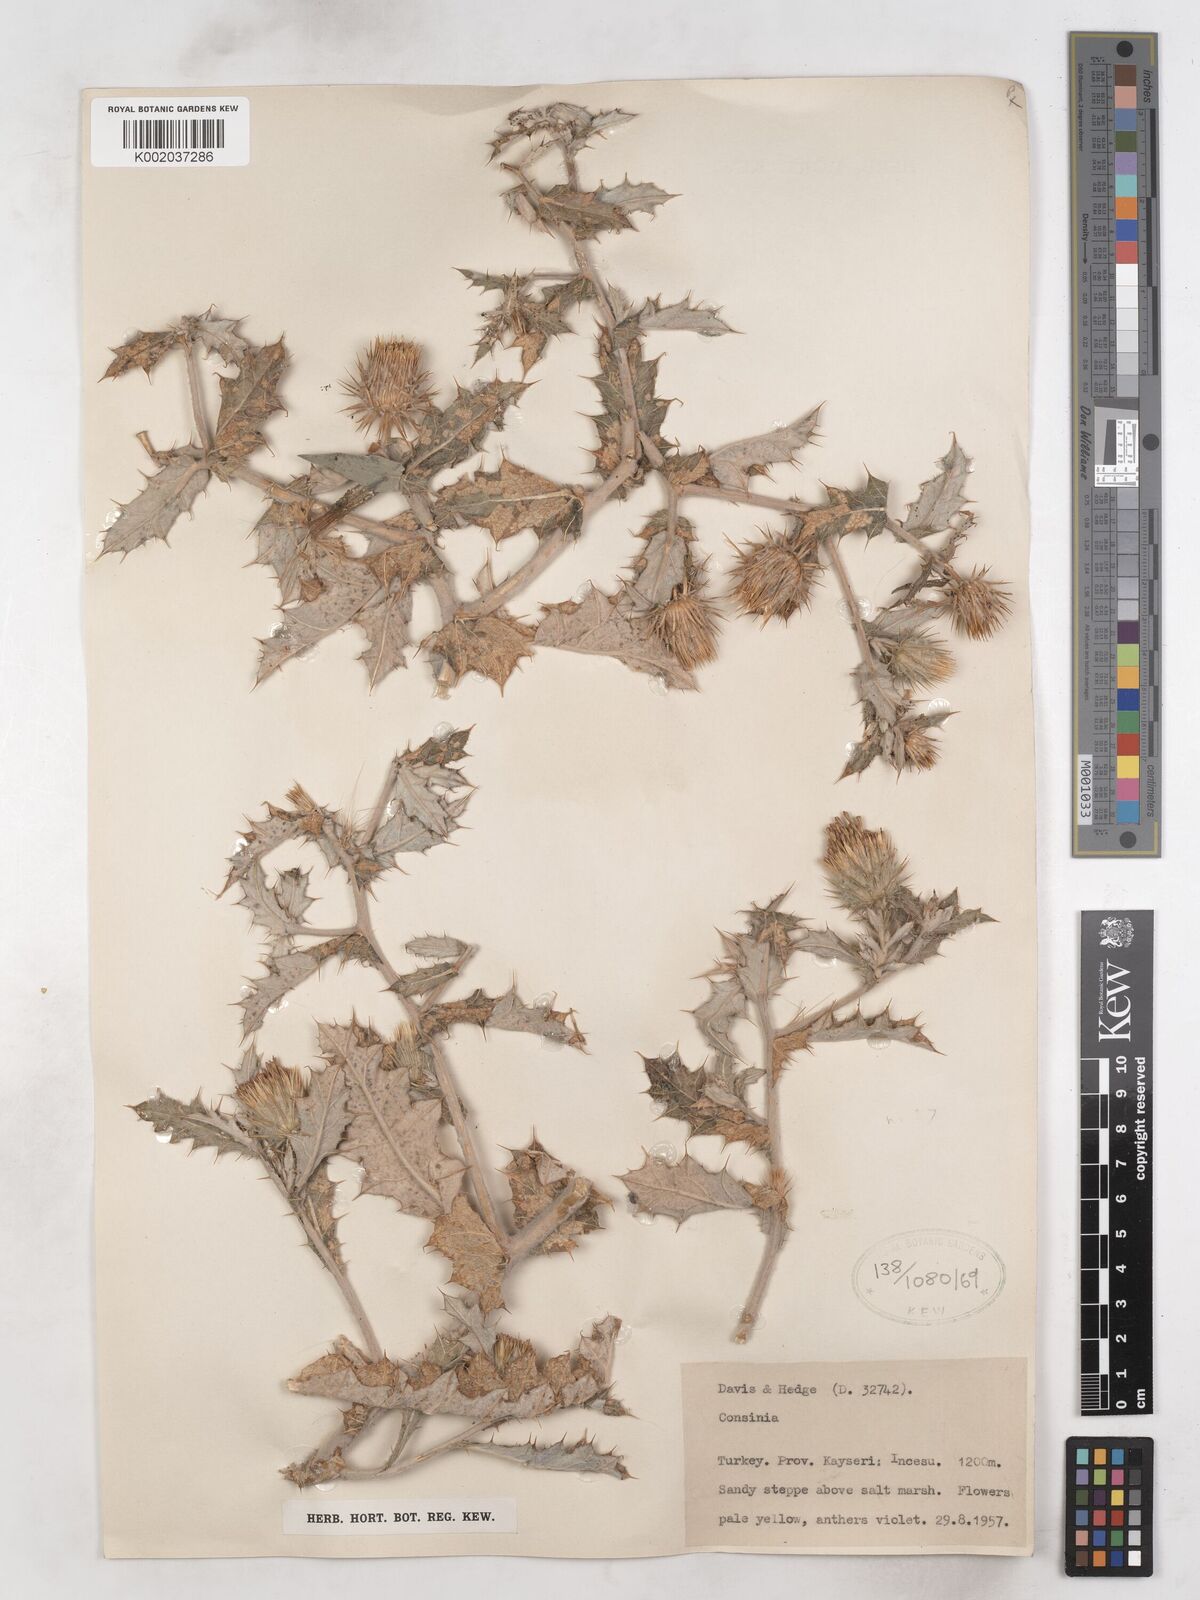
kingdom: Plantae
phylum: Tracheophyta
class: Magnoliopsida
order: Asterales
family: Asteraceae
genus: Cousinia
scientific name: Cousinia caesarea
